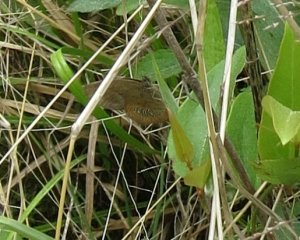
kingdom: Animalia
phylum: Arthropoda
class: Insecta
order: Lepidoptera
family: Nymphalidae
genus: Euptychia
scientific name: Euptychia phocion
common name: Georgia Satyr
